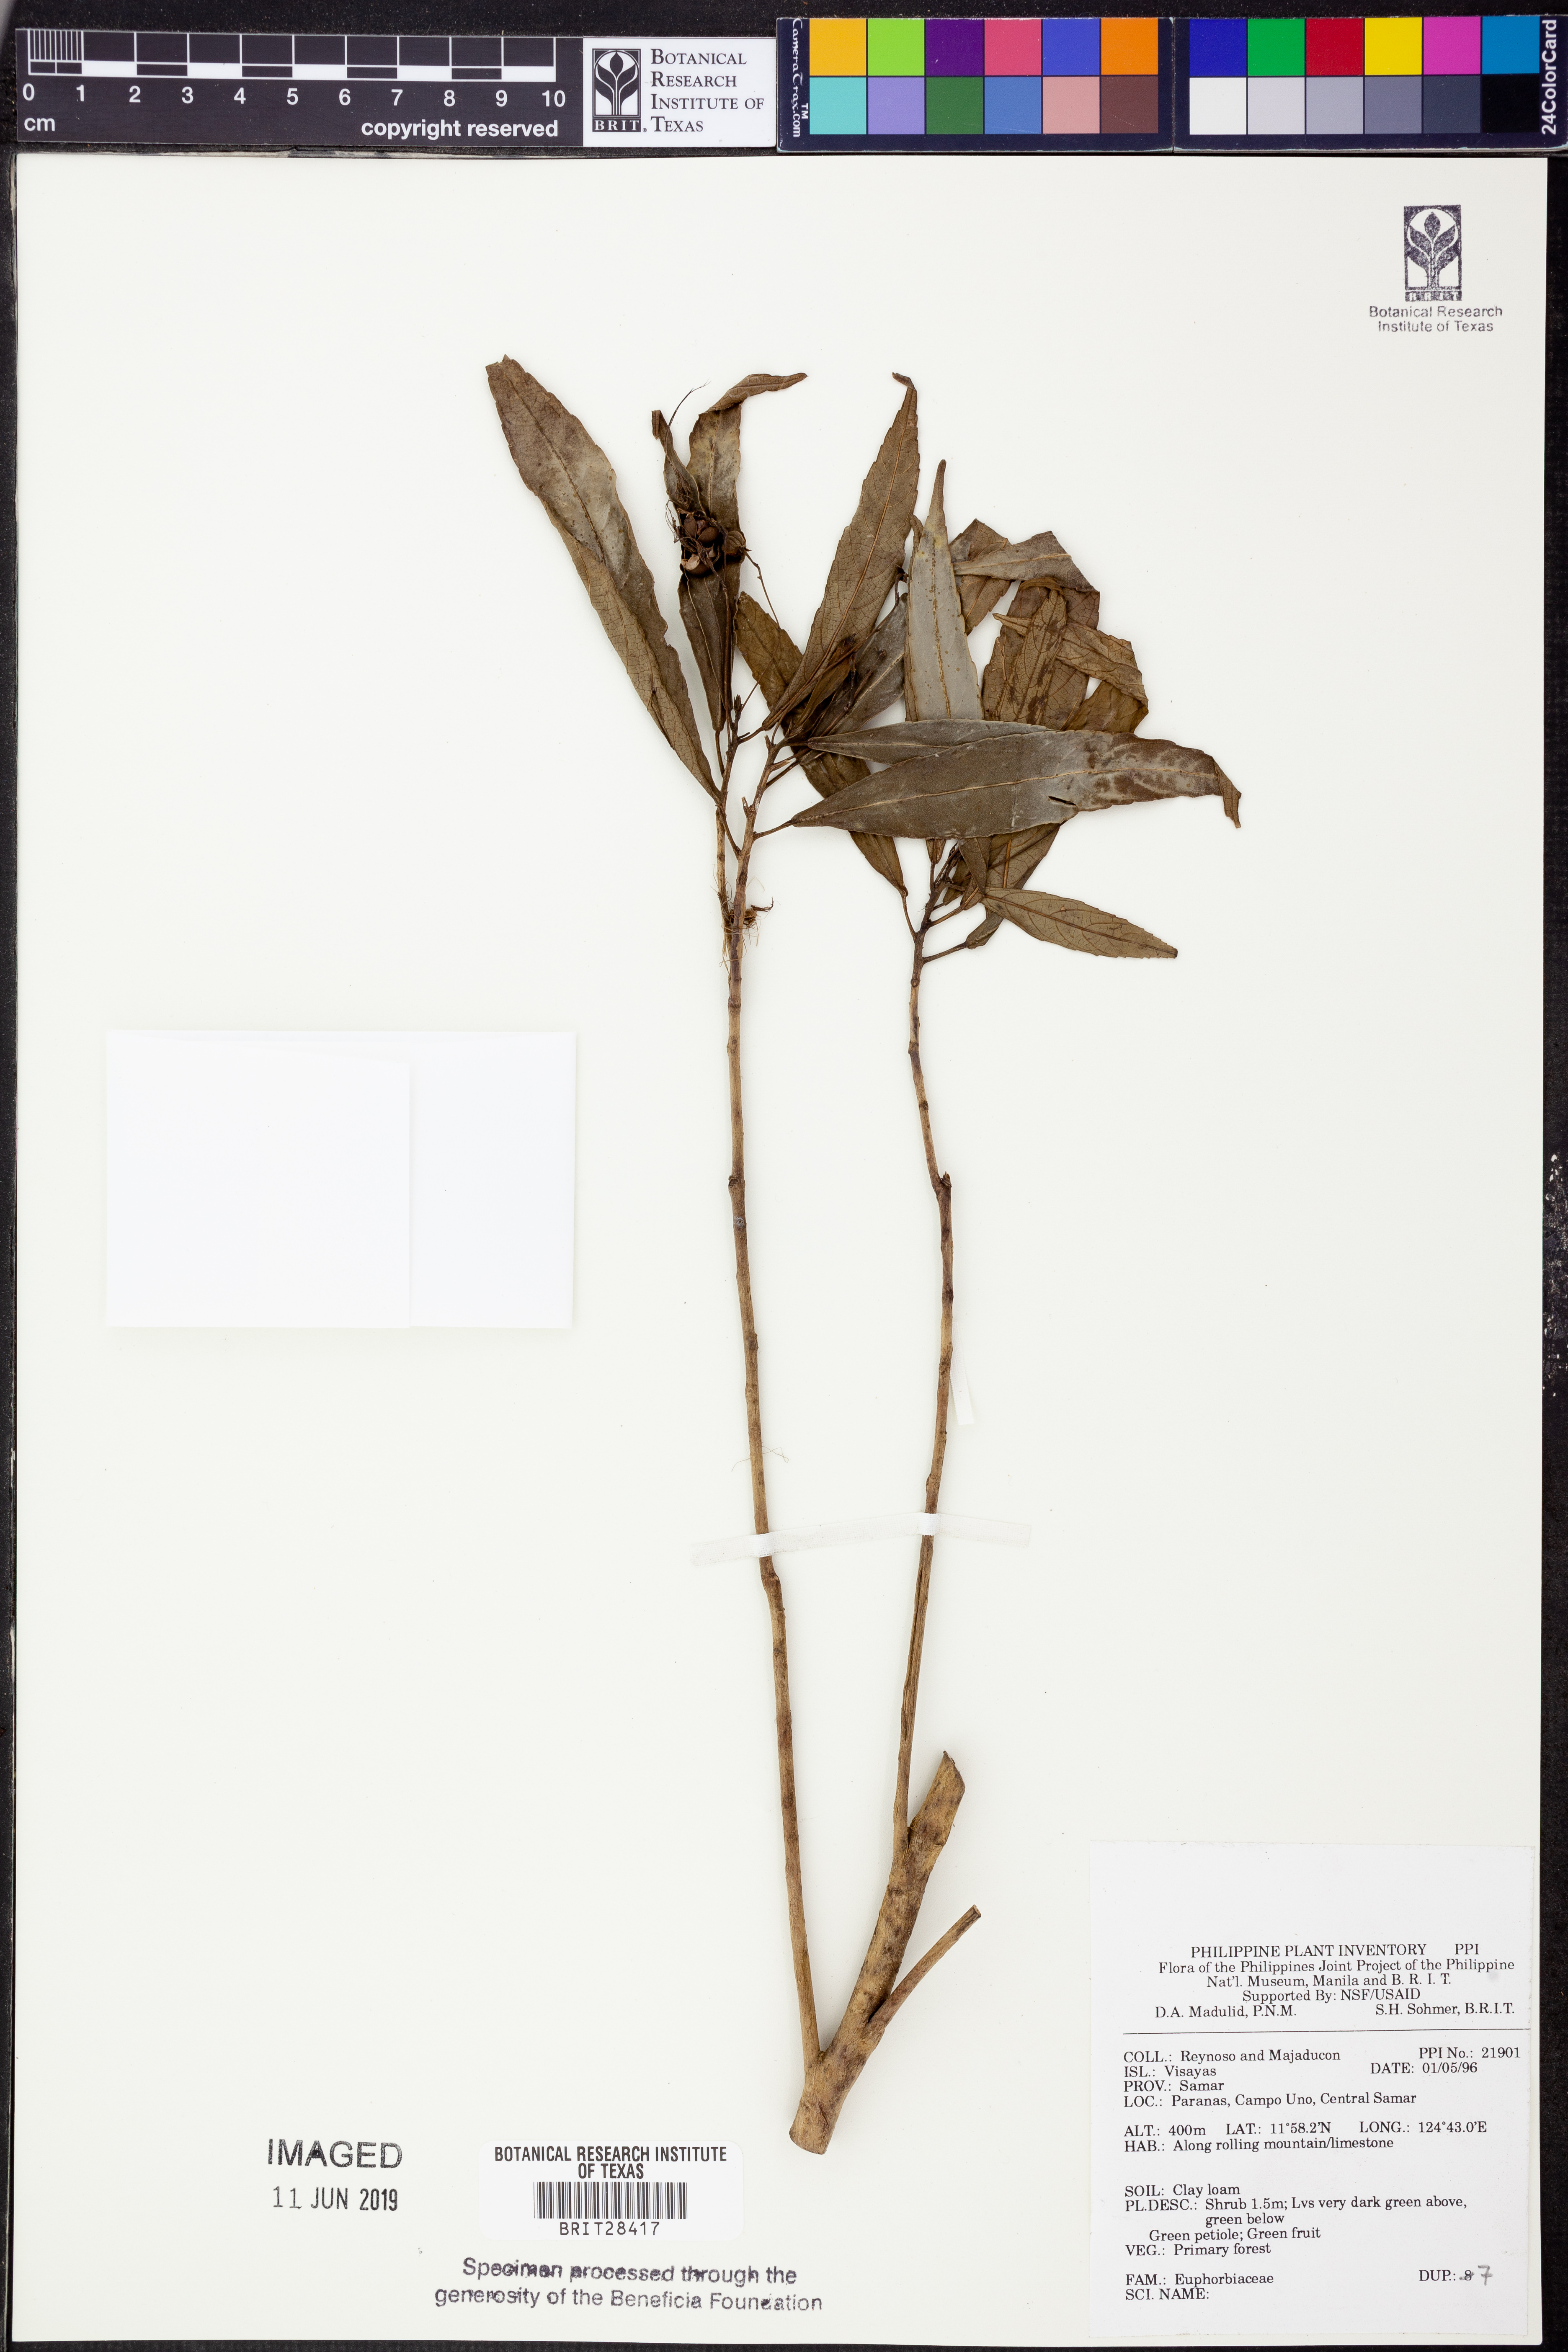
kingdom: Plantae
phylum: Tracheophyta
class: Magnoliopsida
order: Malpighiales
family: Euphorbiaceae
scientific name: Euphorbiaceae
